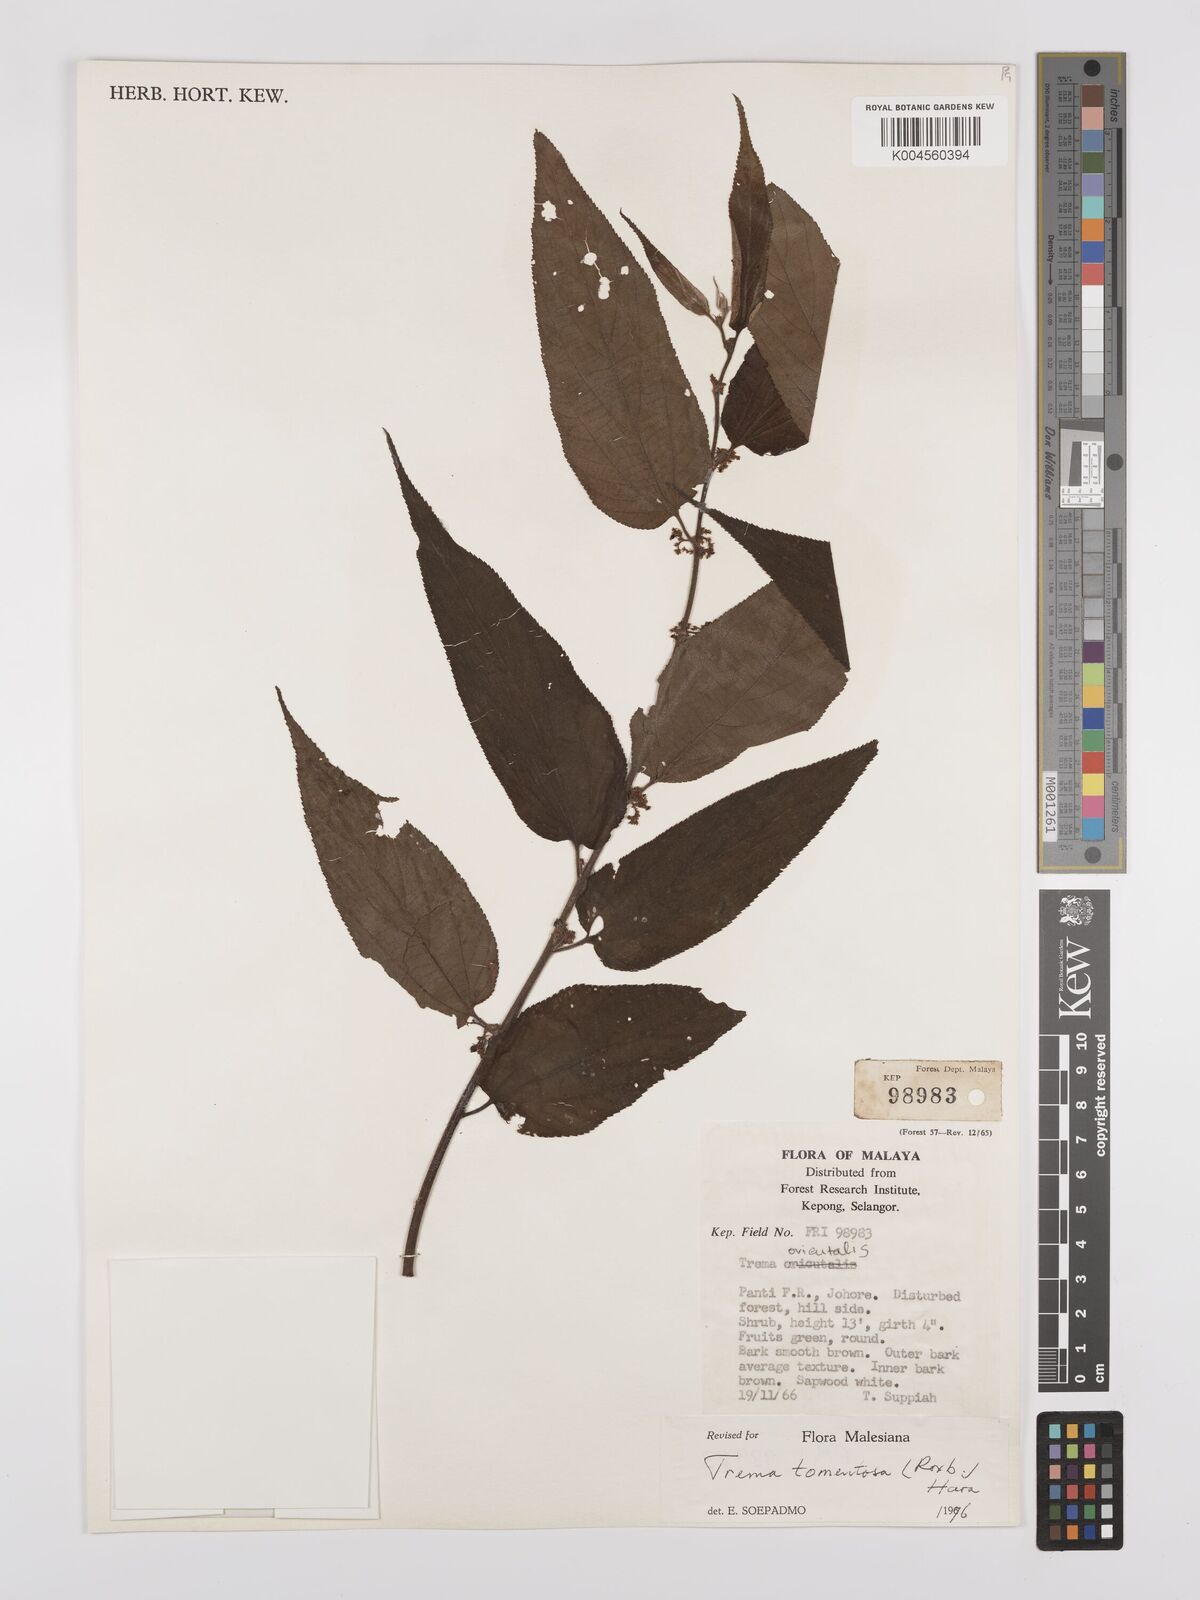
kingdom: Plantae
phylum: Tracheophyta
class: Magnoliopsida
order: Rosales
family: Cannabaceae
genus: Trema
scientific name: Trema tomentosum
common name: Peach-leaf-poisonbush
